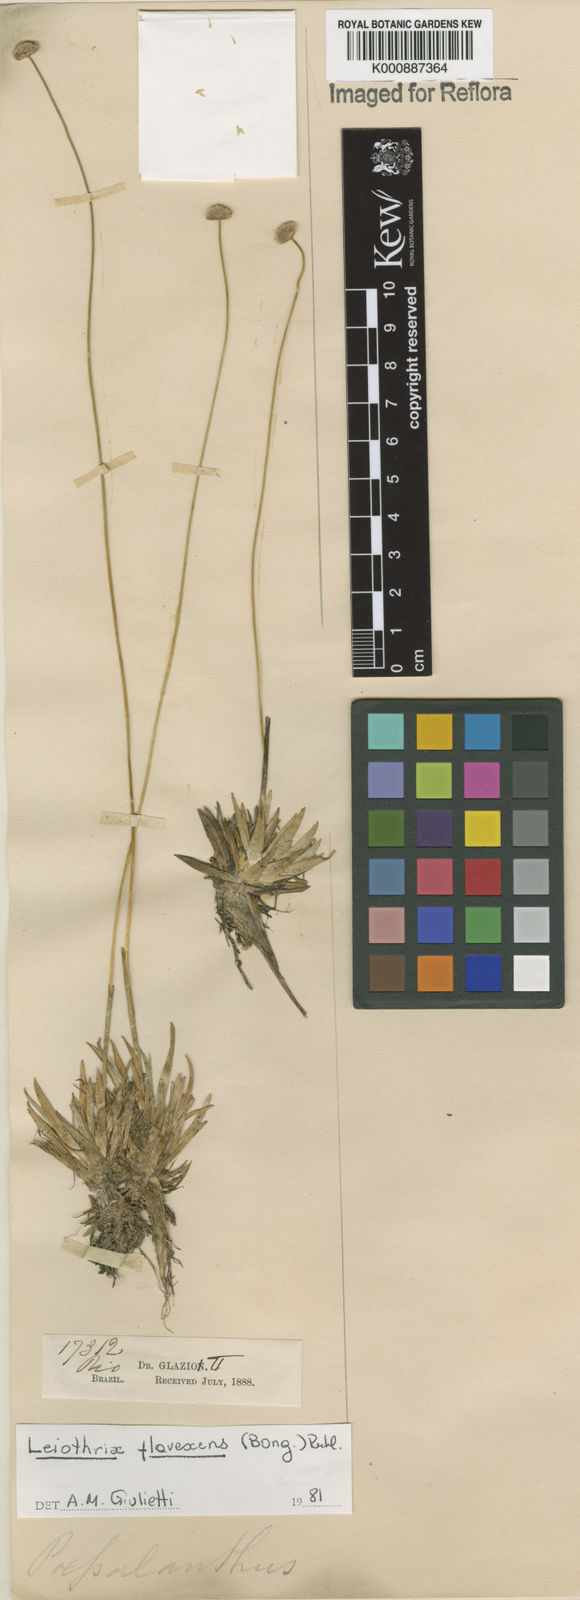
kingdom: Plantae
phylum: Tracheophyta
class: Liliopsida
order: Poales
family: Eriocaulaceae
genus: Leiothrix
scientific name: Leiothrix flavescens
